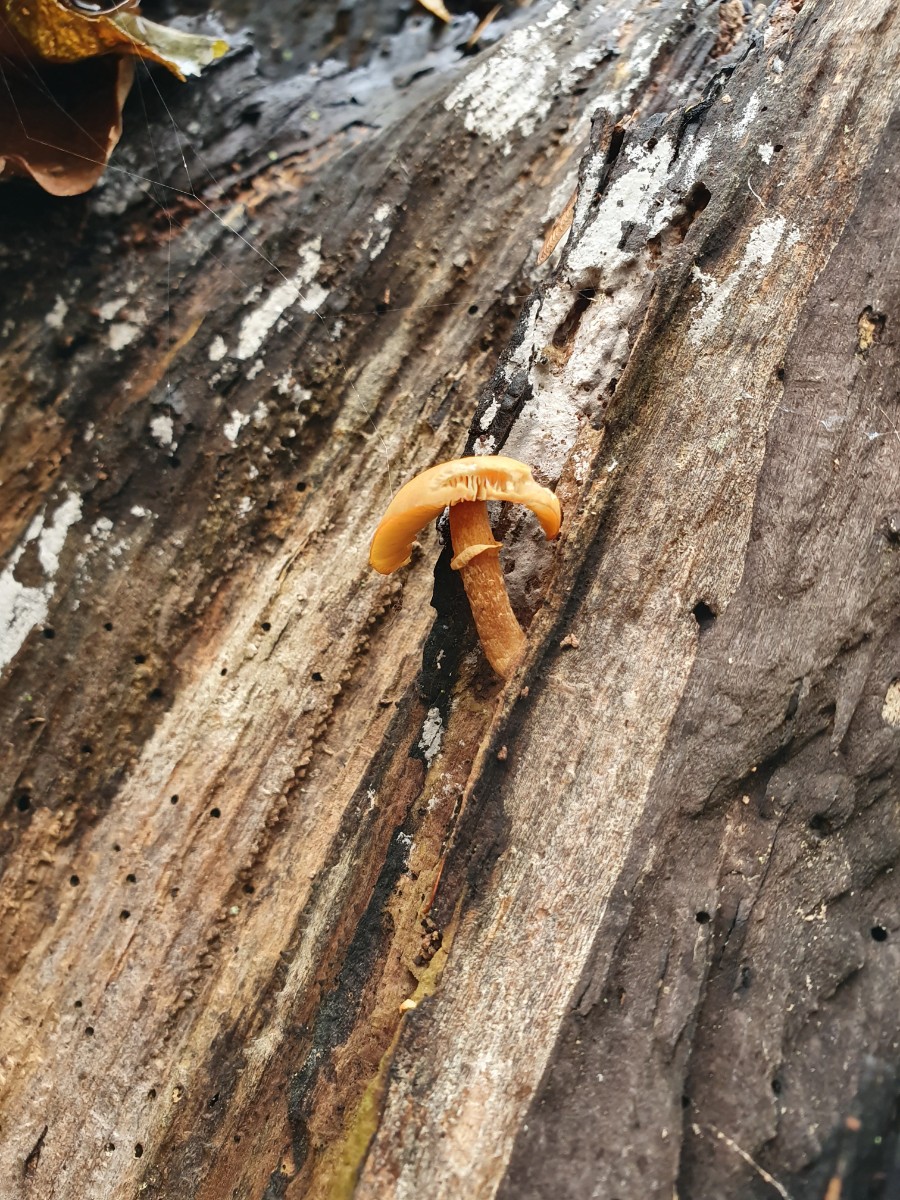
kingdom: Fungi
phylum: Basidiomycota
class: Agaricomycetes
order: Agaricales
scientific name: Agaricales
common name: champignonordenen
